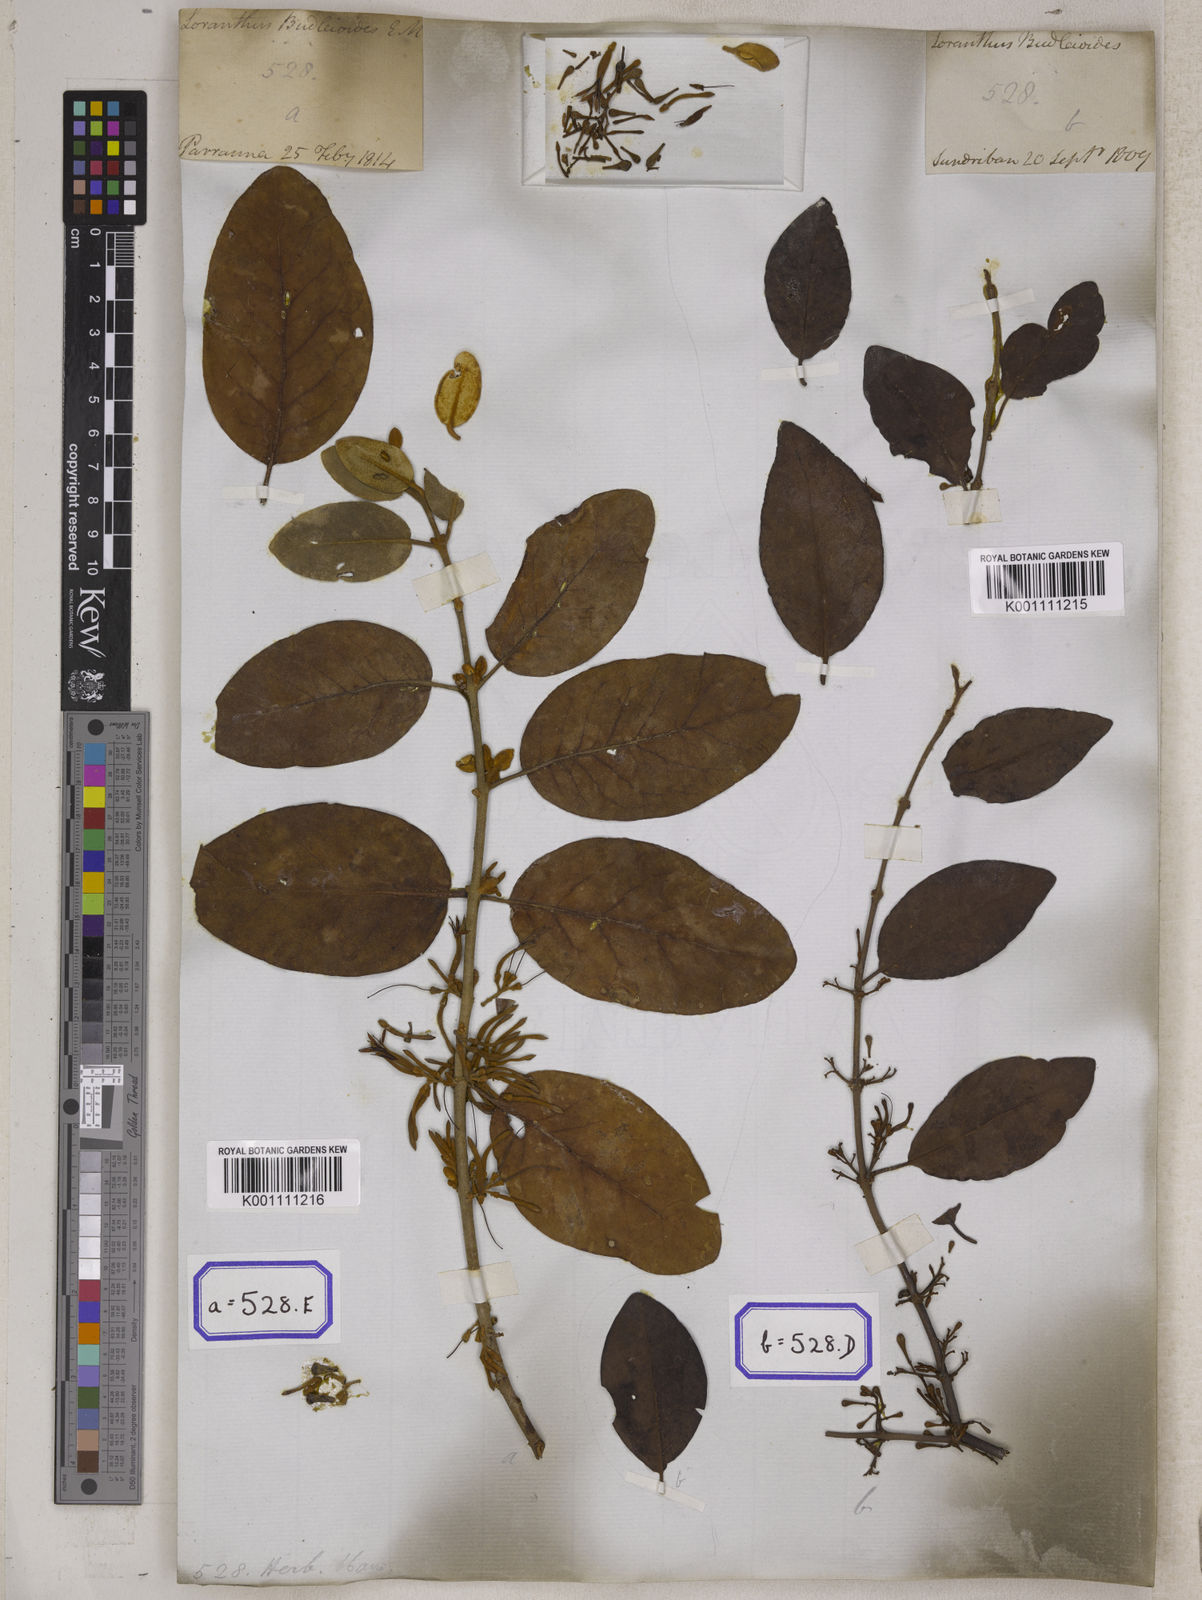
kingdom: Plantae
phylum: Tracheophyta
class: Magnoliopsida
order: Santalales
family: Loranthaceae
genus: Scurrula
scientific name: Scurrula parasitica
